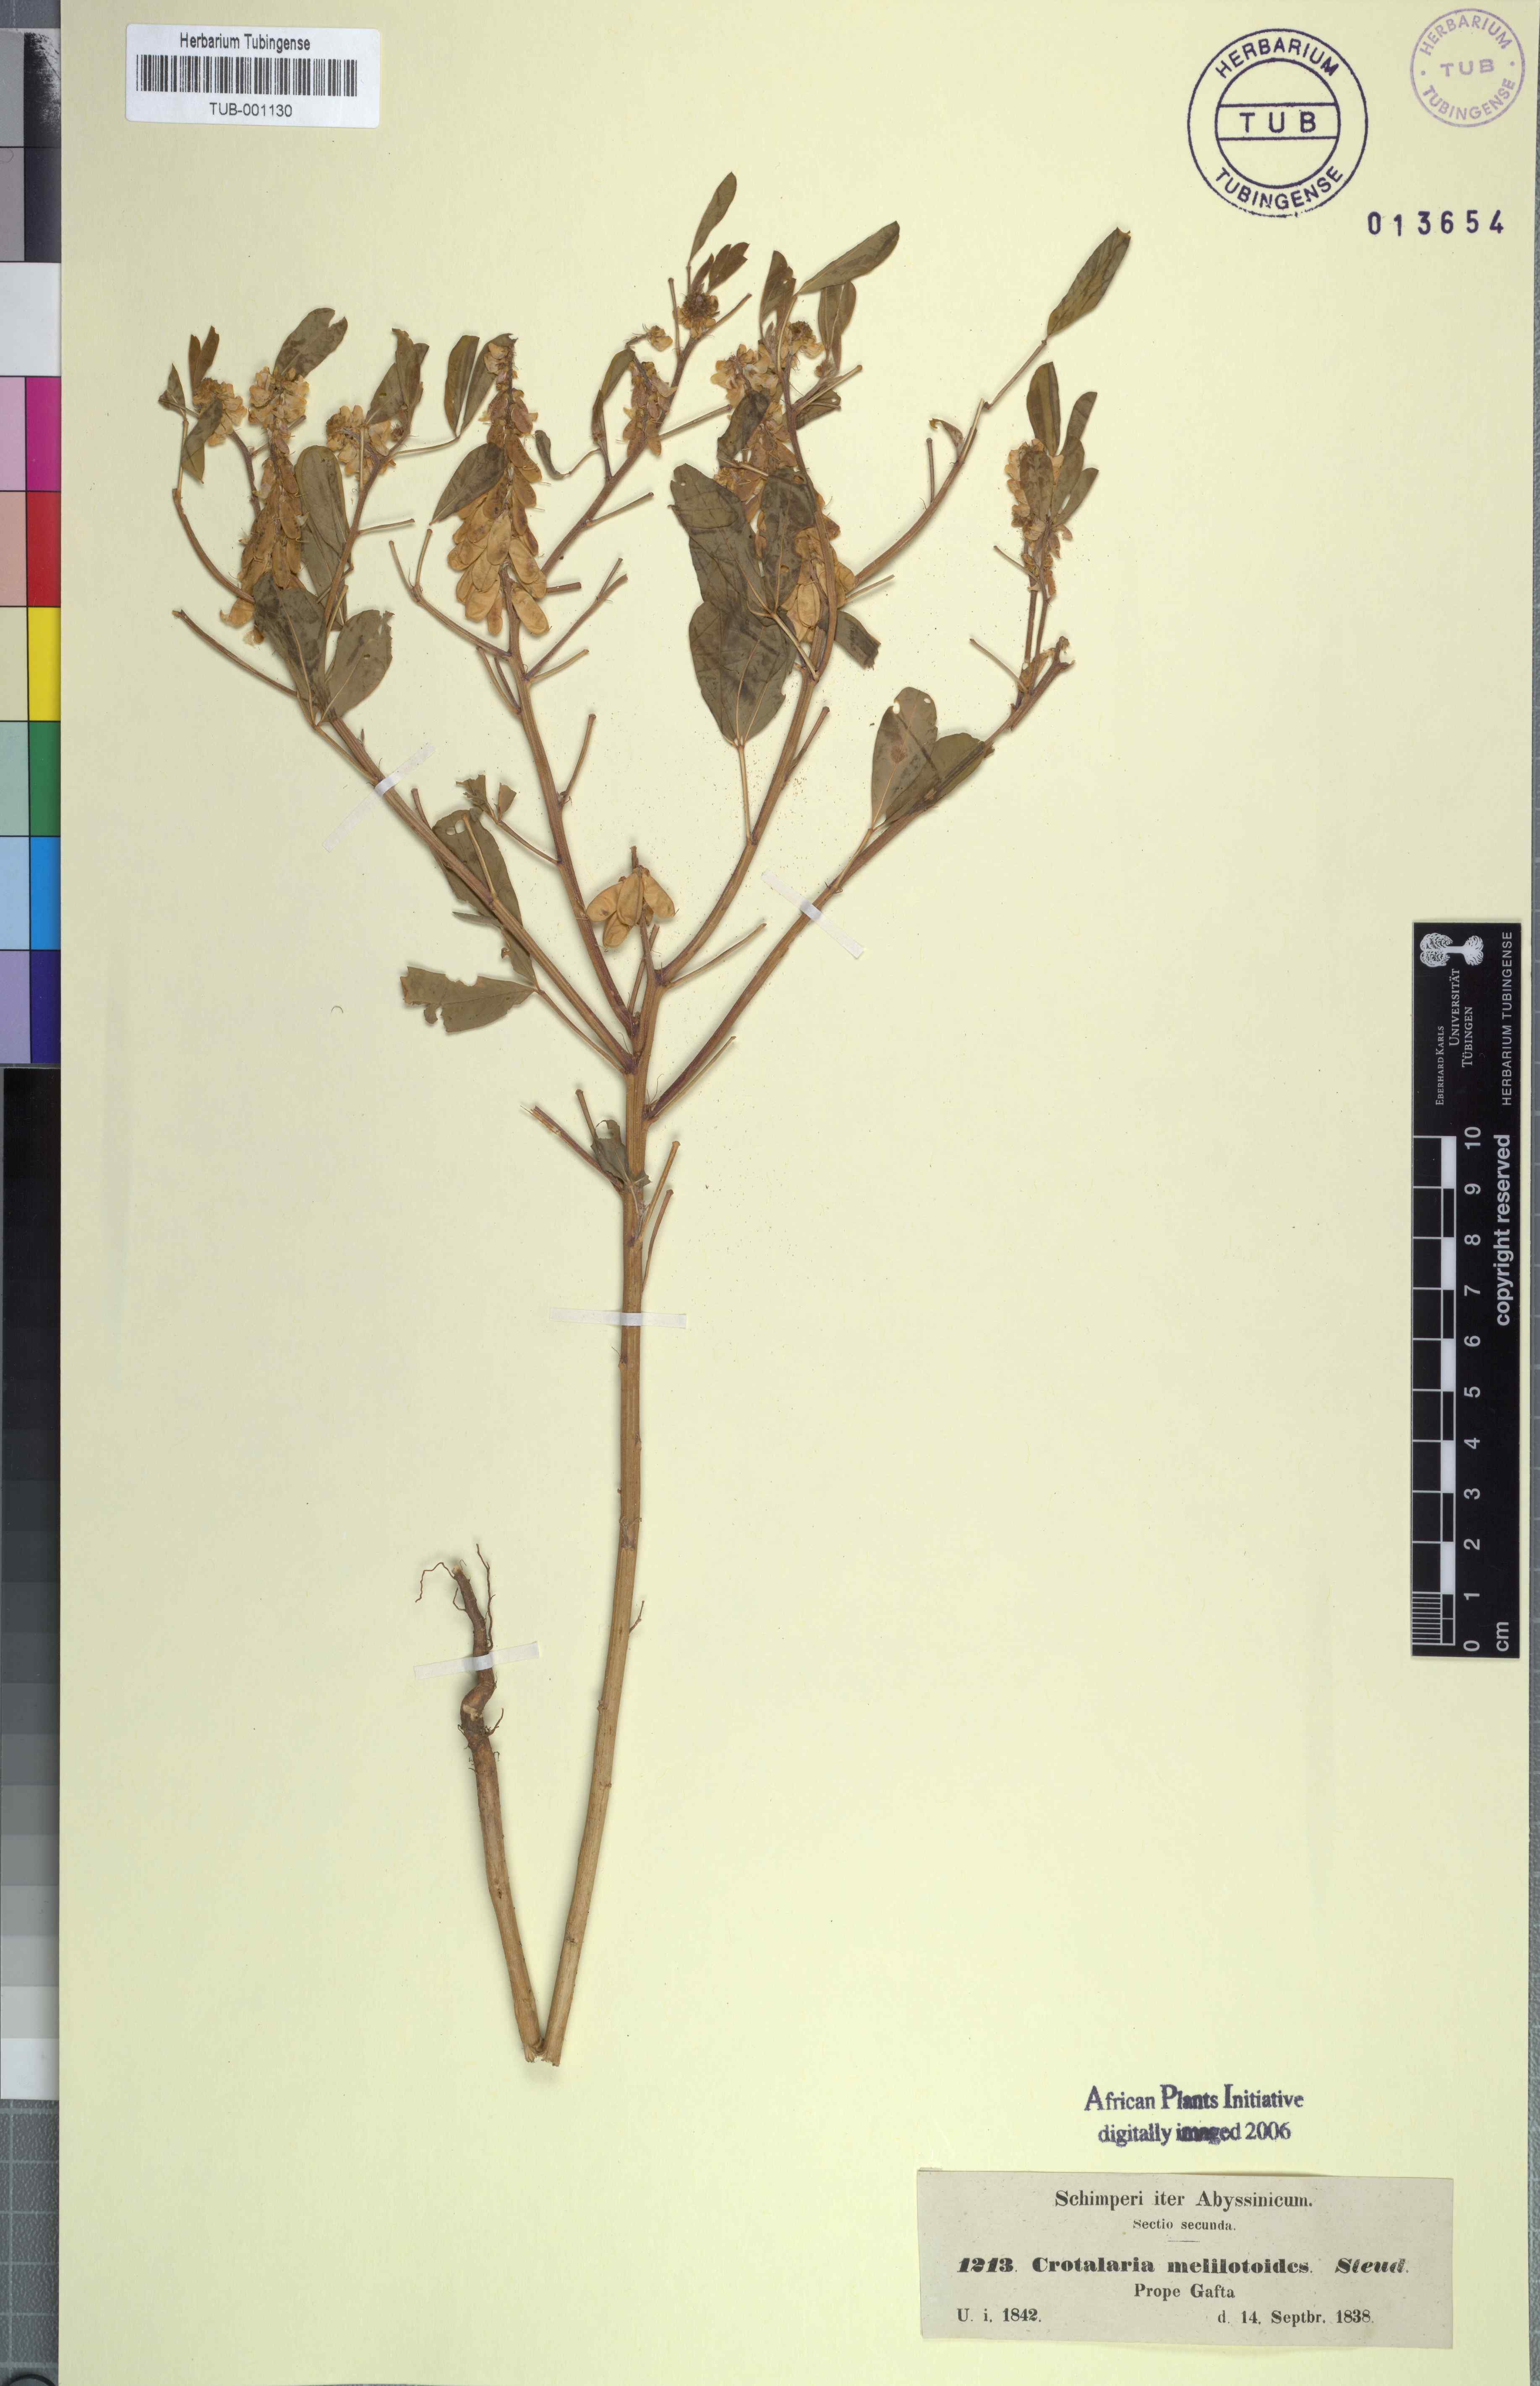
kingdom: Plantae
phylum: Tracheophyta
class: Magnoliopsida
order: Fabales
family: Fabaceae
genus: Crotalaria
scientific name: Crotalaria pycnostachya
